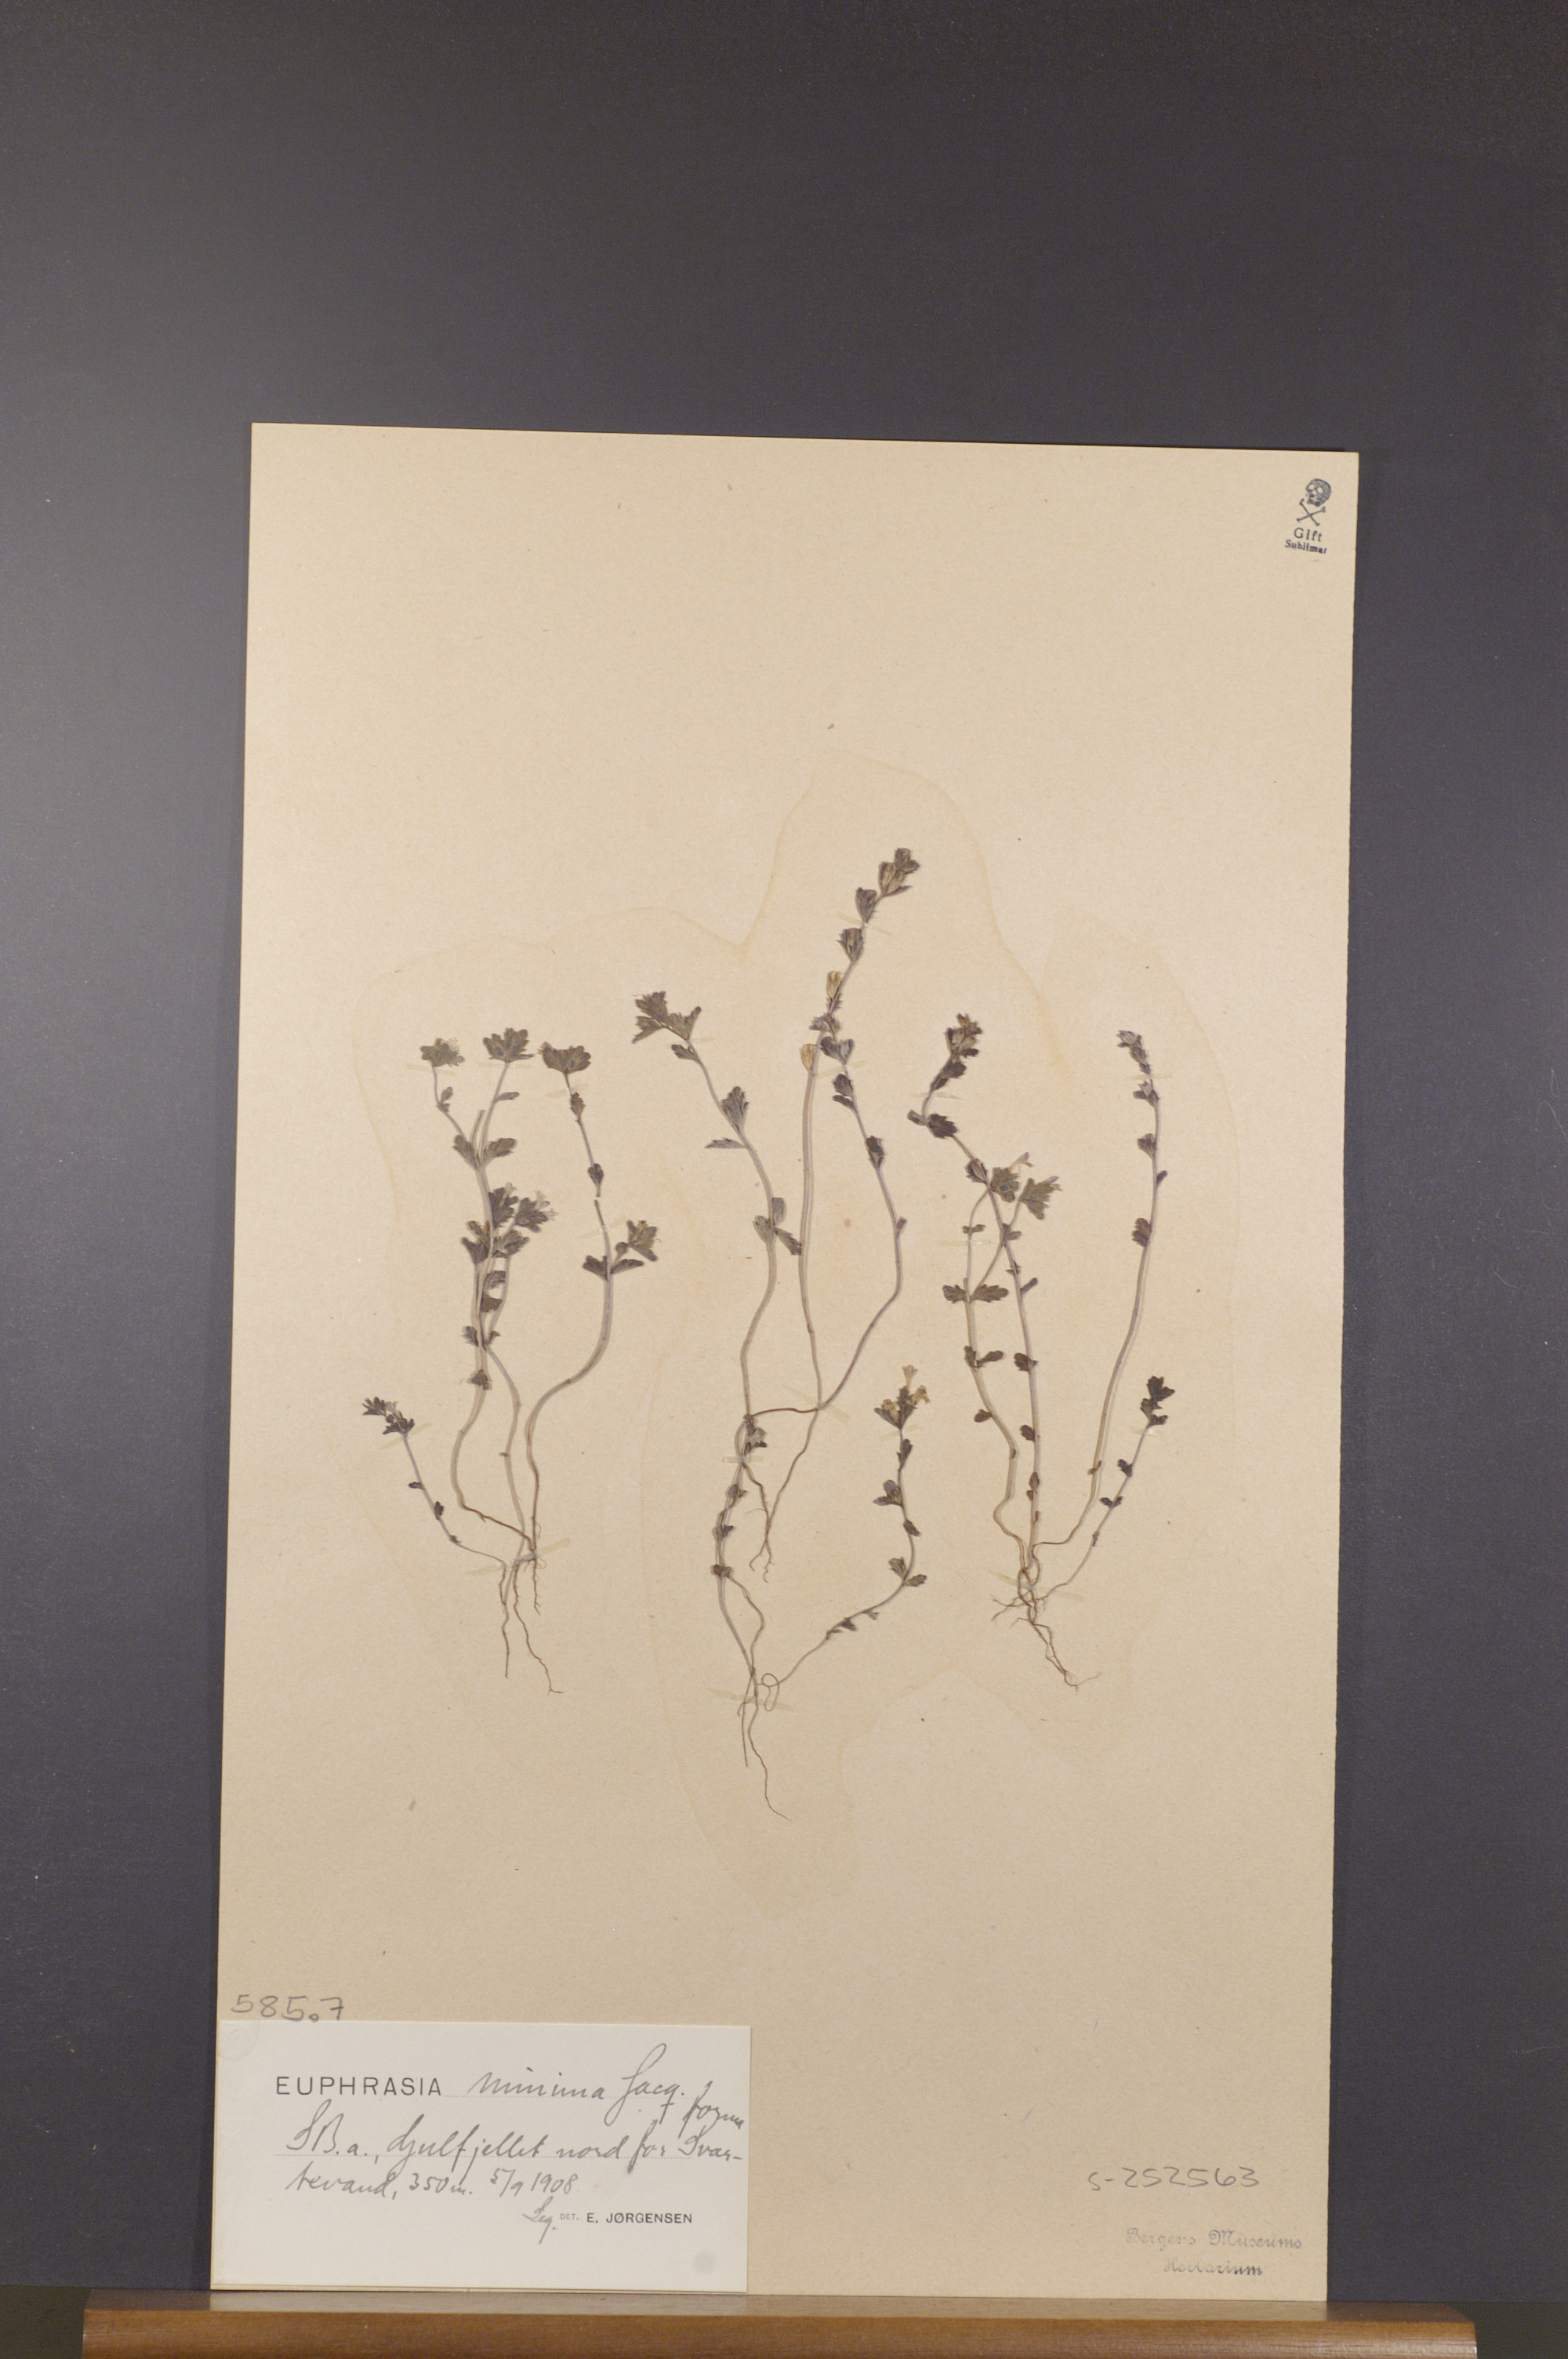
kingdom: Plantae
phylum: Tracheophyta
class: Magnoliopsida
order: Lamiales
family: Orobanchaceae
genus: Euphrasia
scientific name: Euphrasia minima
